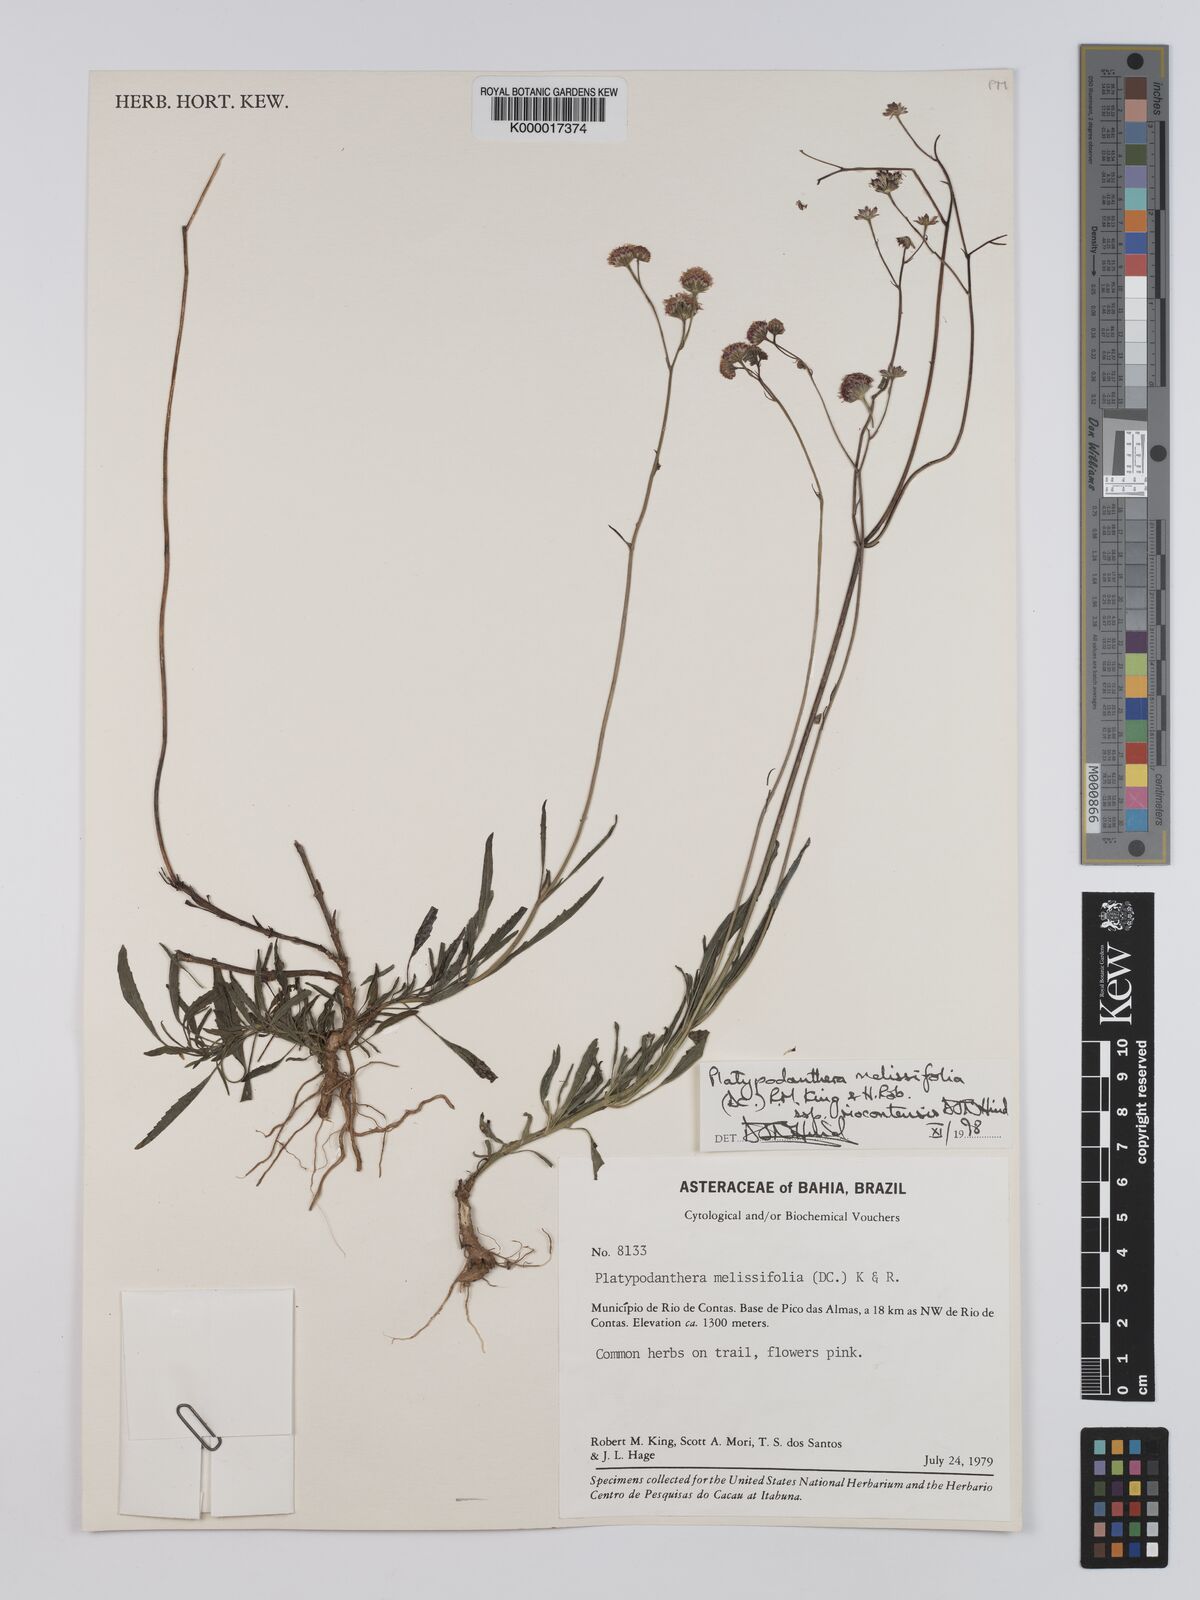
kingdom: Plantae
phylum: Tracheophyta
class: Magnoliopsida
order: Asterales
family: Asteraceae
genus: Platypodanthera
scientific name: Platypodanthera melissifolia
